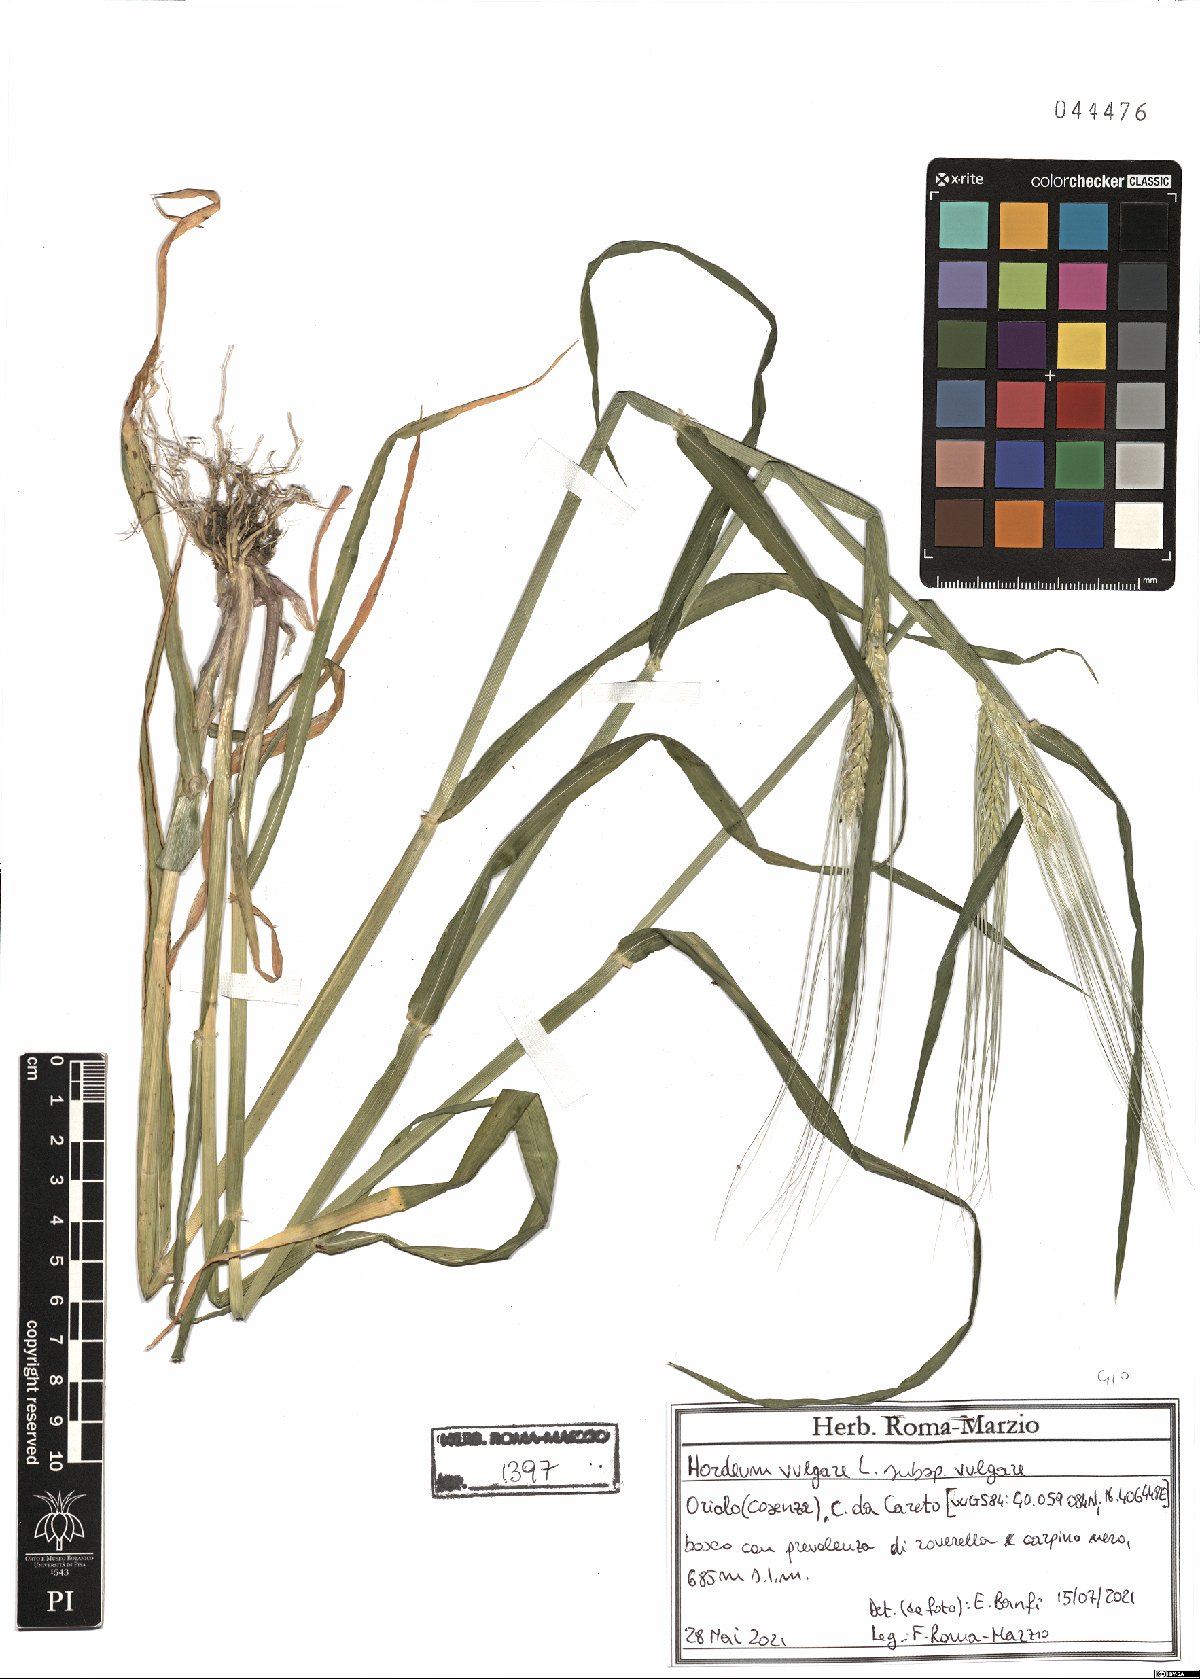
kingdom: Plantae
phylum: Tracheophyta
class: Liliopsida
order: Poales
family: Poaceae
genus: Hordeum
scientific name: Hordeum vulgare
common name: Common barley
